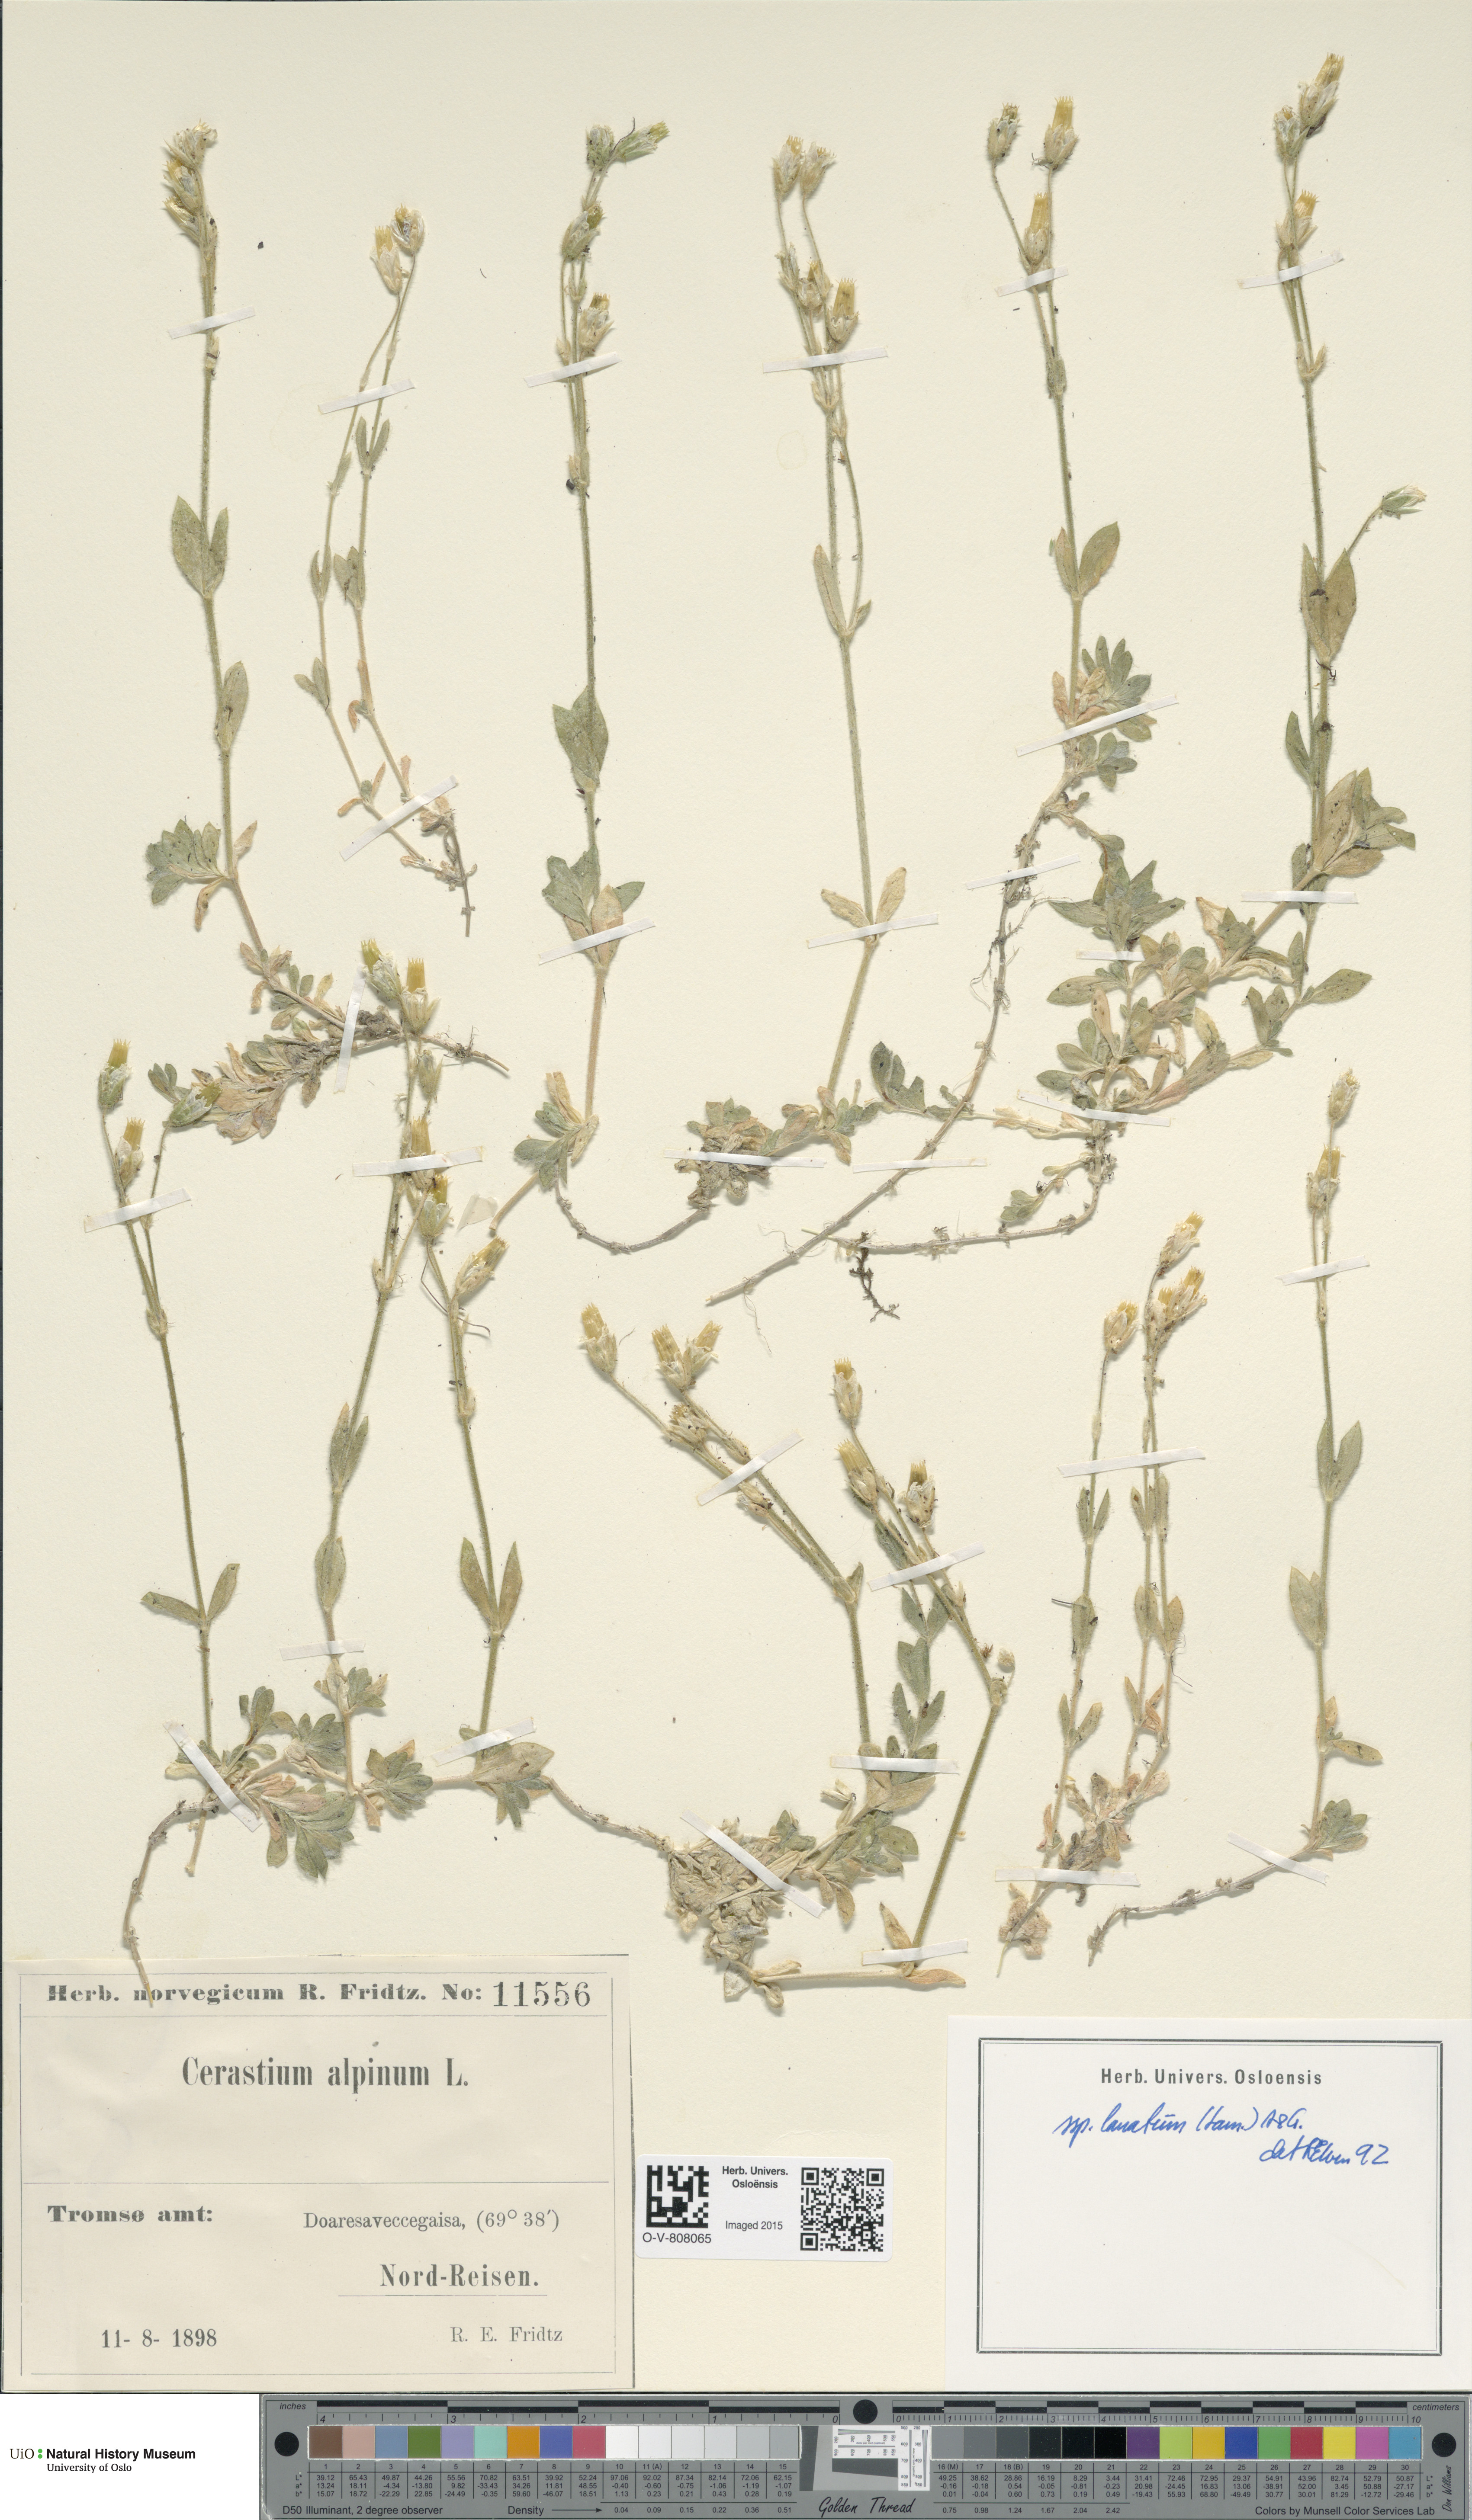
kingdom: Plantae
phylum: Tracheophyta
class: Magnoliopsida
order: Caryophyllales
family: Caryophyllaceae
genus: Cerastium
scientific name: Cerastium alpinum
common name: Alpine mouse-ear
